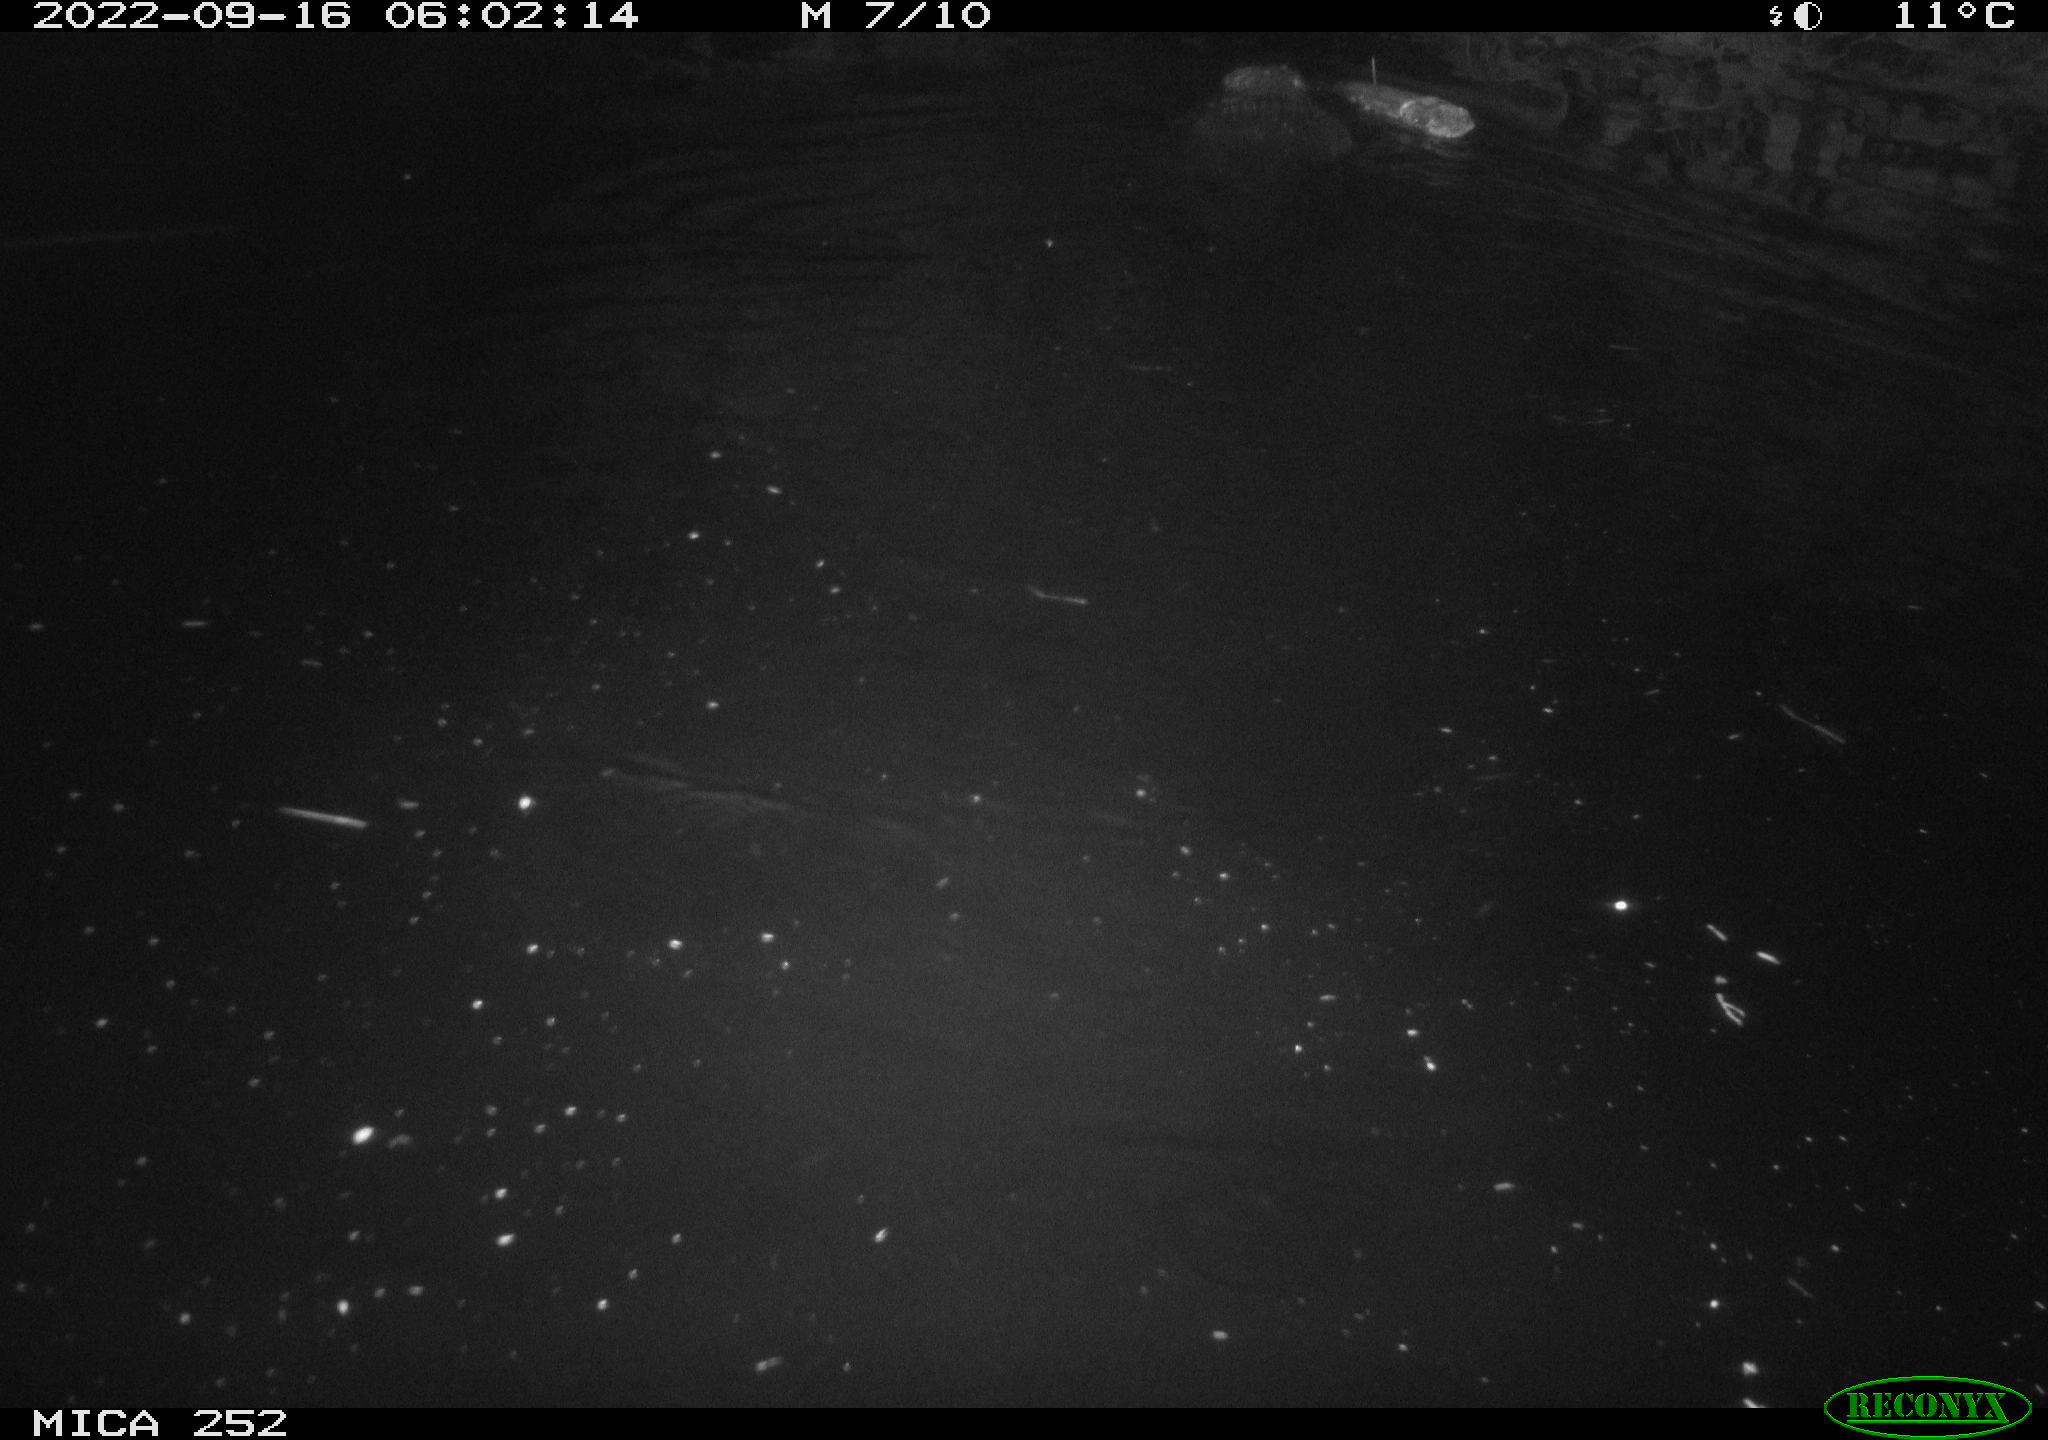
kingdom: Animalia
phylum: Chordata
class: Mammalia
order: Rodentia
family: Castoridae
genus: Castor
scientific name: Castor fiber
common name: Eurasian beaver
